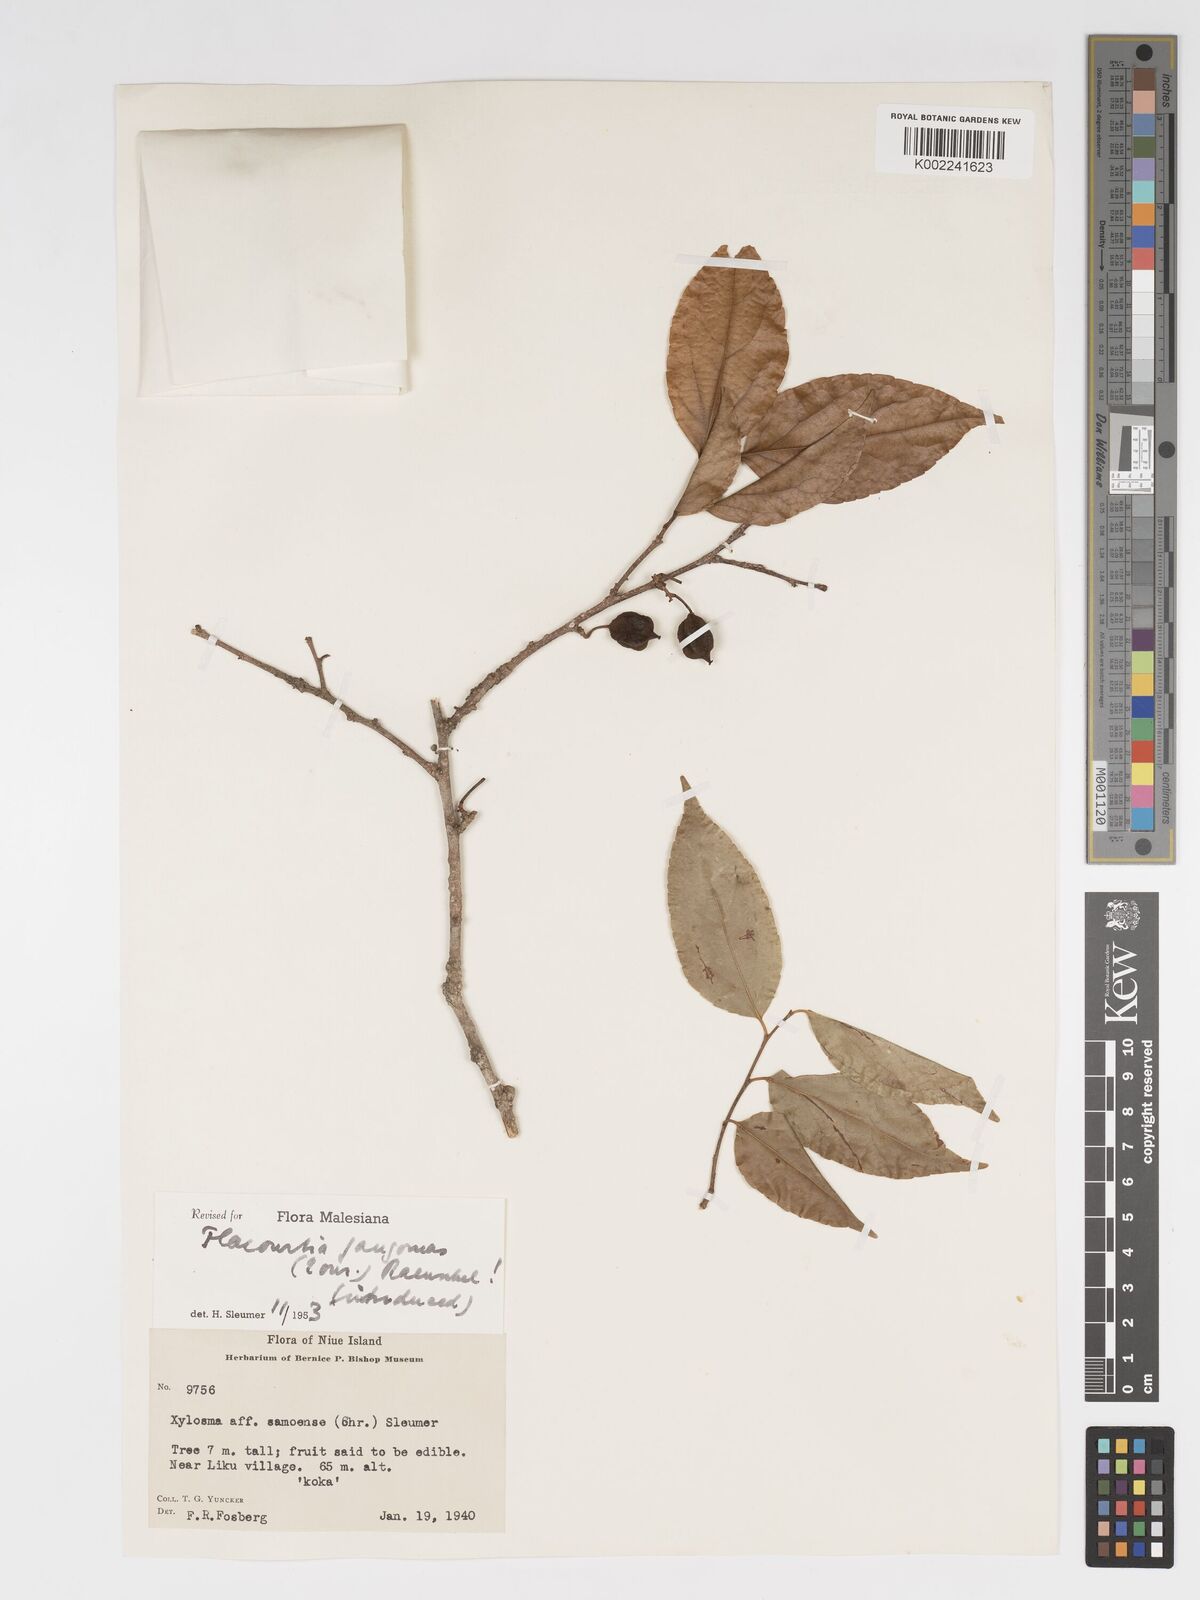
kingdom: Plantae
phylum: Tracheophyta
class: Magnoliopsida
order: Malpighiales
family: Salicaceae
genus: Flacourtia
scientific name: Flacourtia jangomas
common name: Indian-plum
